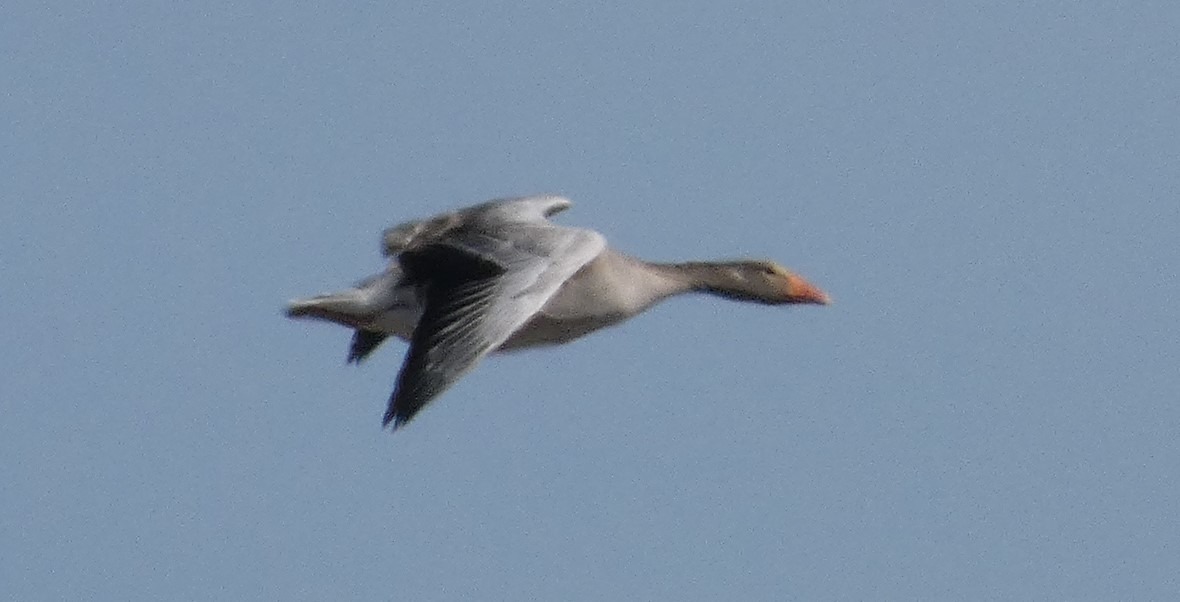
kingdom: Animalia
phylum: Chordata
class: Aves
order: Anseriformes
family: Anatidae
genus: Anser
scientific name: Anser anser
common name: Grågås
